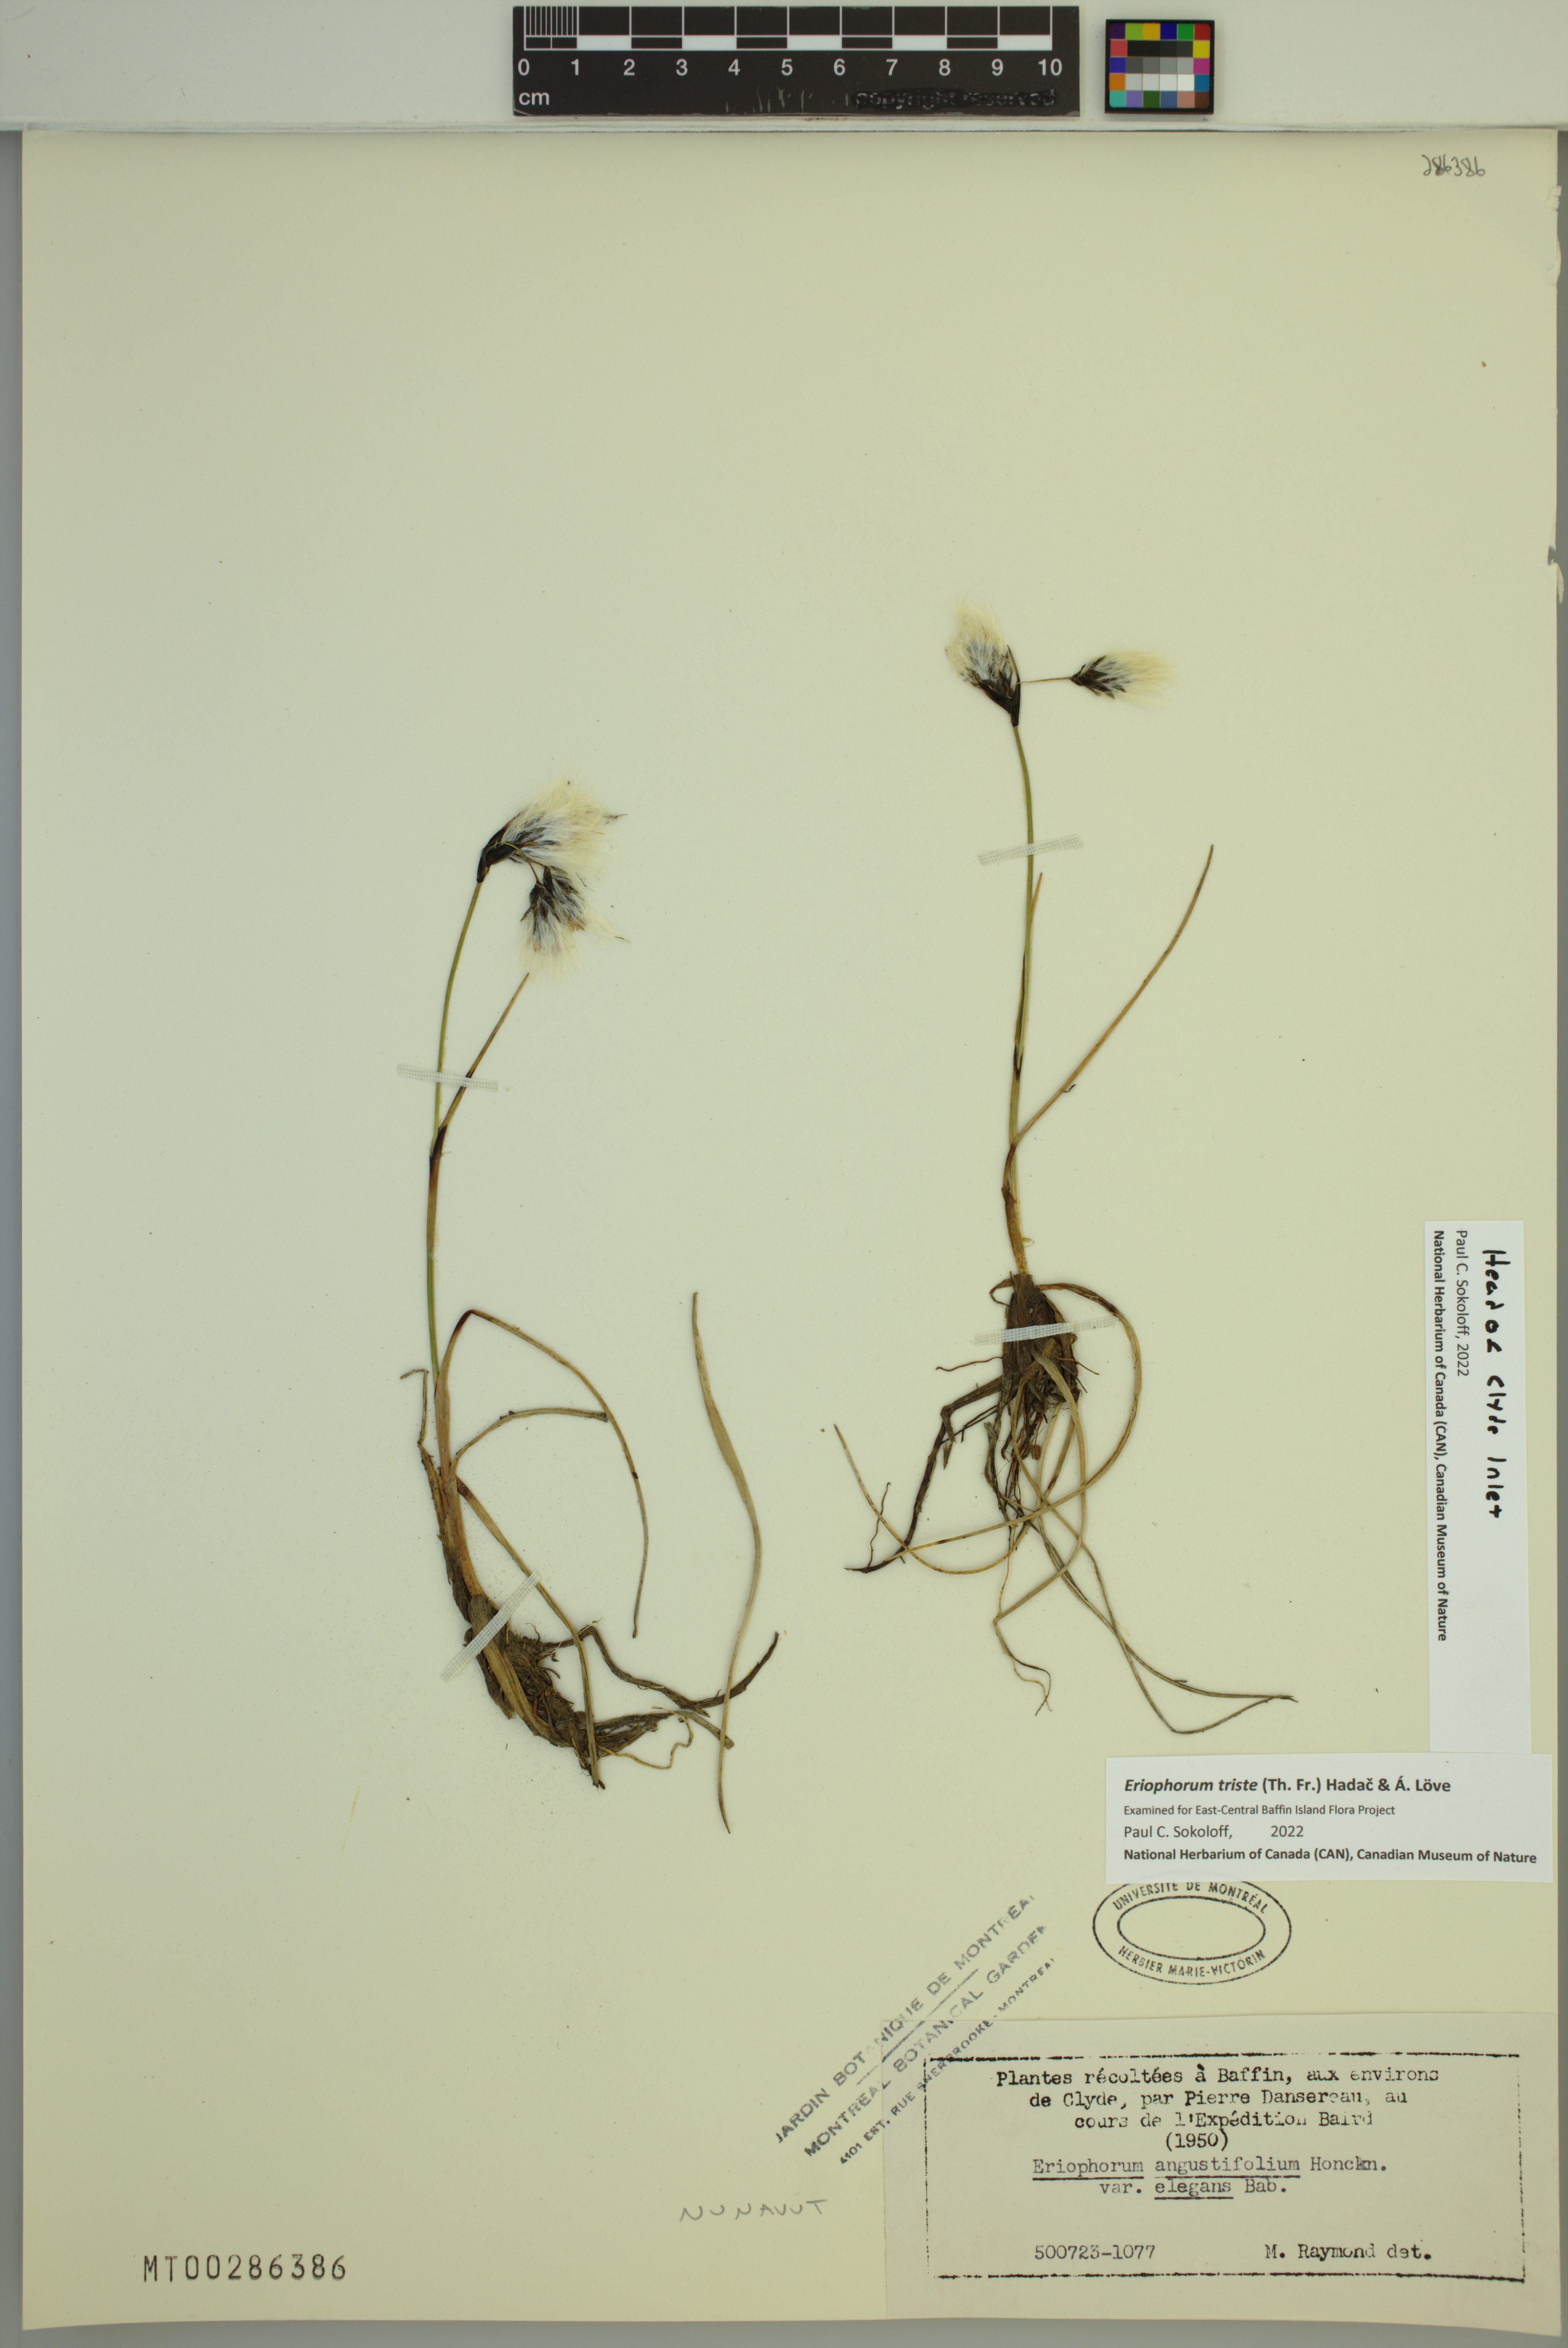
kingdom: Plantae
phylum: Tracheophyta
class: Liliopsida
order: Poales
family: Cyperaceae
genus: Eriophorum
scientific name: Eriophorum triste
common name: Tall cottongrass
